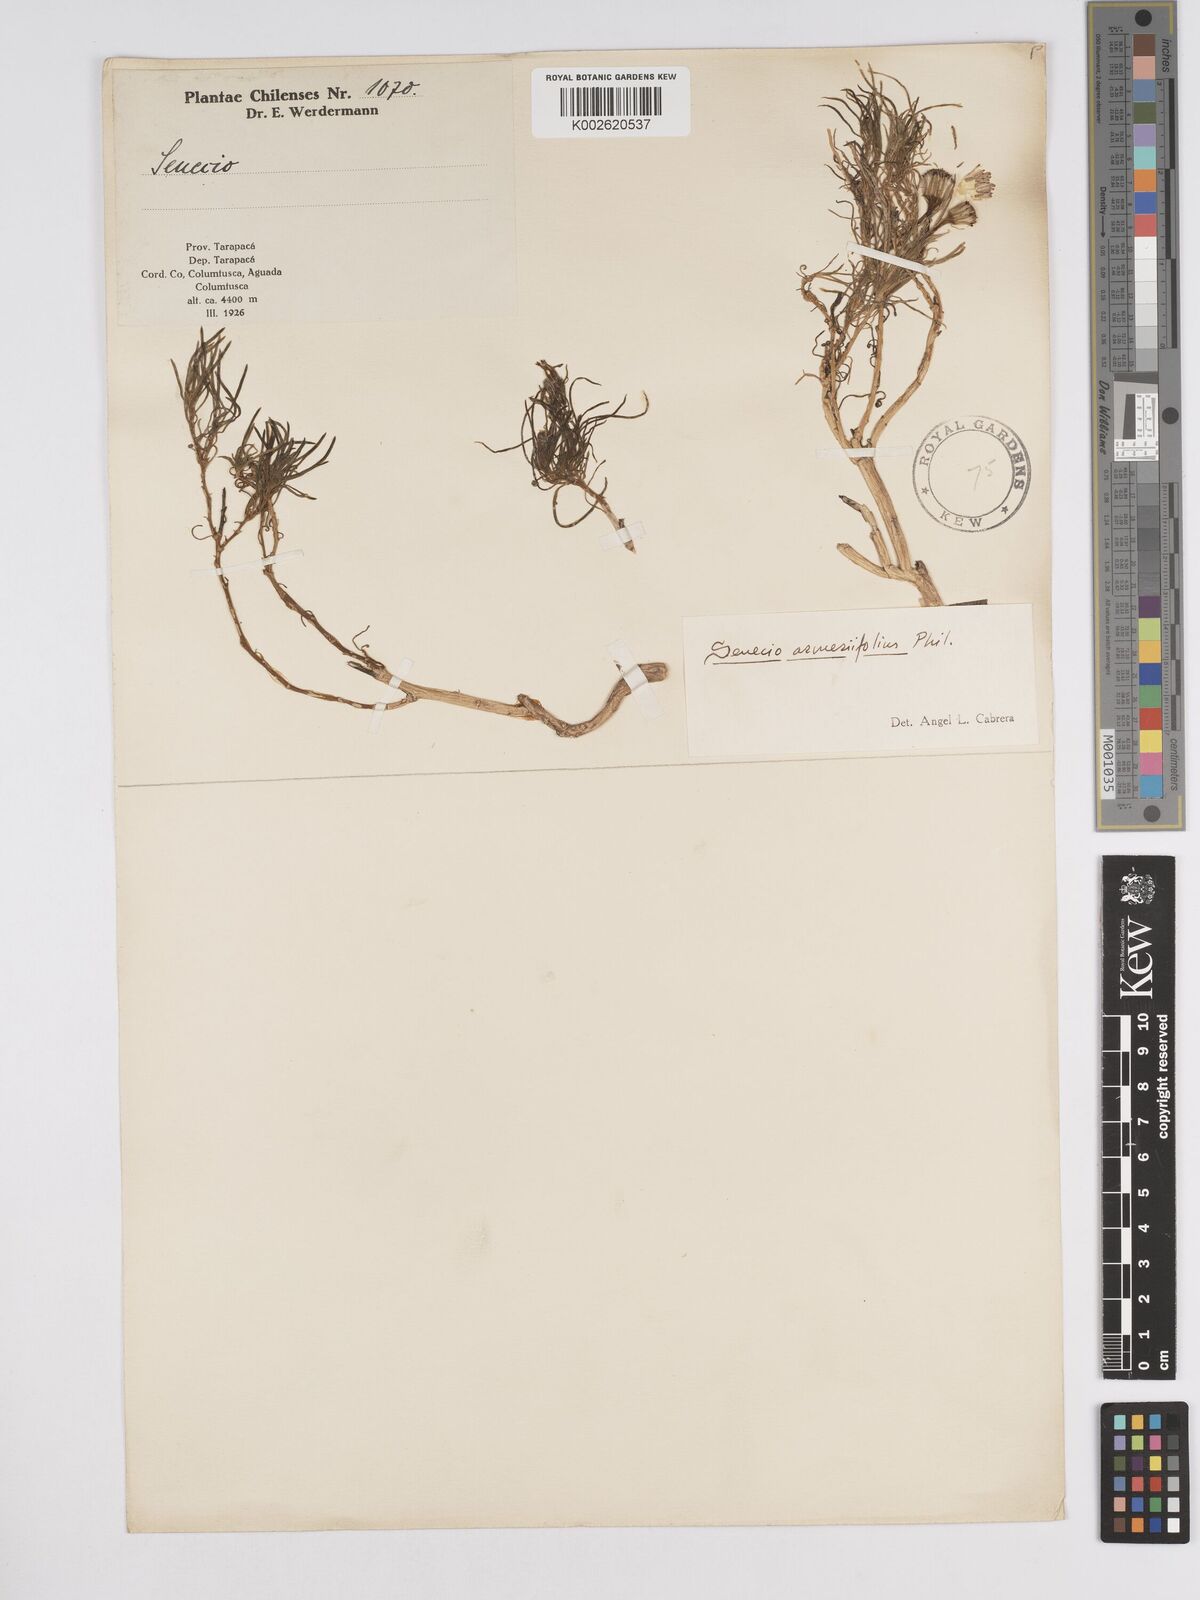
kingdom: Plantae
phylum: Tracheophyta
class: Magnoliopsida
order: Asterales
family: Asteraceae
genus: Senecio
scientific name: Senecio scorzonerifolius
